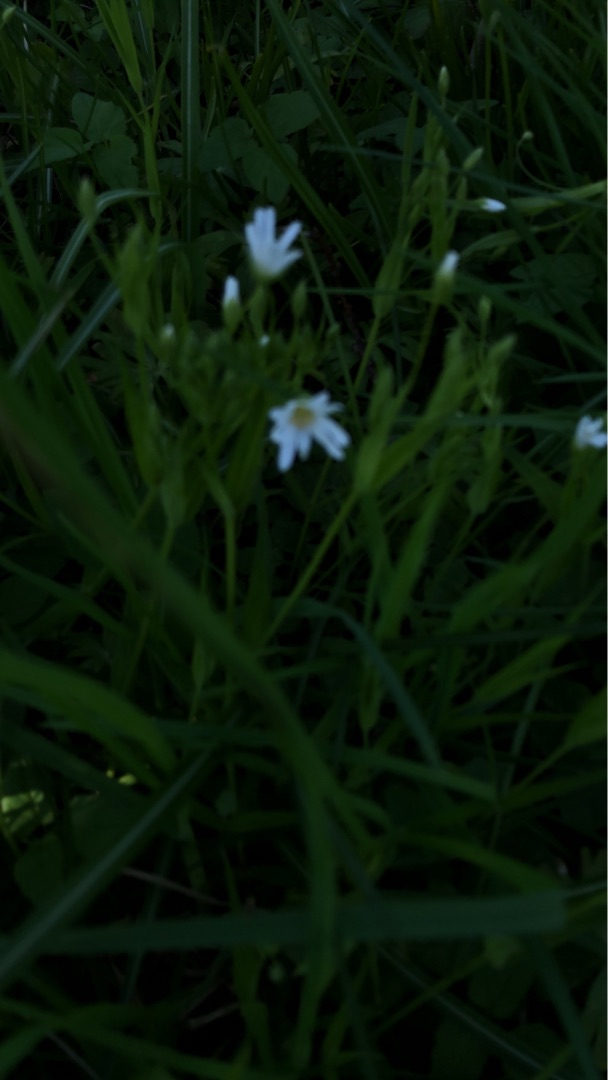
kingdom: Plantae
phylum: Tracheophyta
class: Magnoliopsida
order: Caryophyllales
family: Caryophyllaceae
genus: Rabelera
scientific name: Rabelera holostea
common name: Stor fladstjerne
